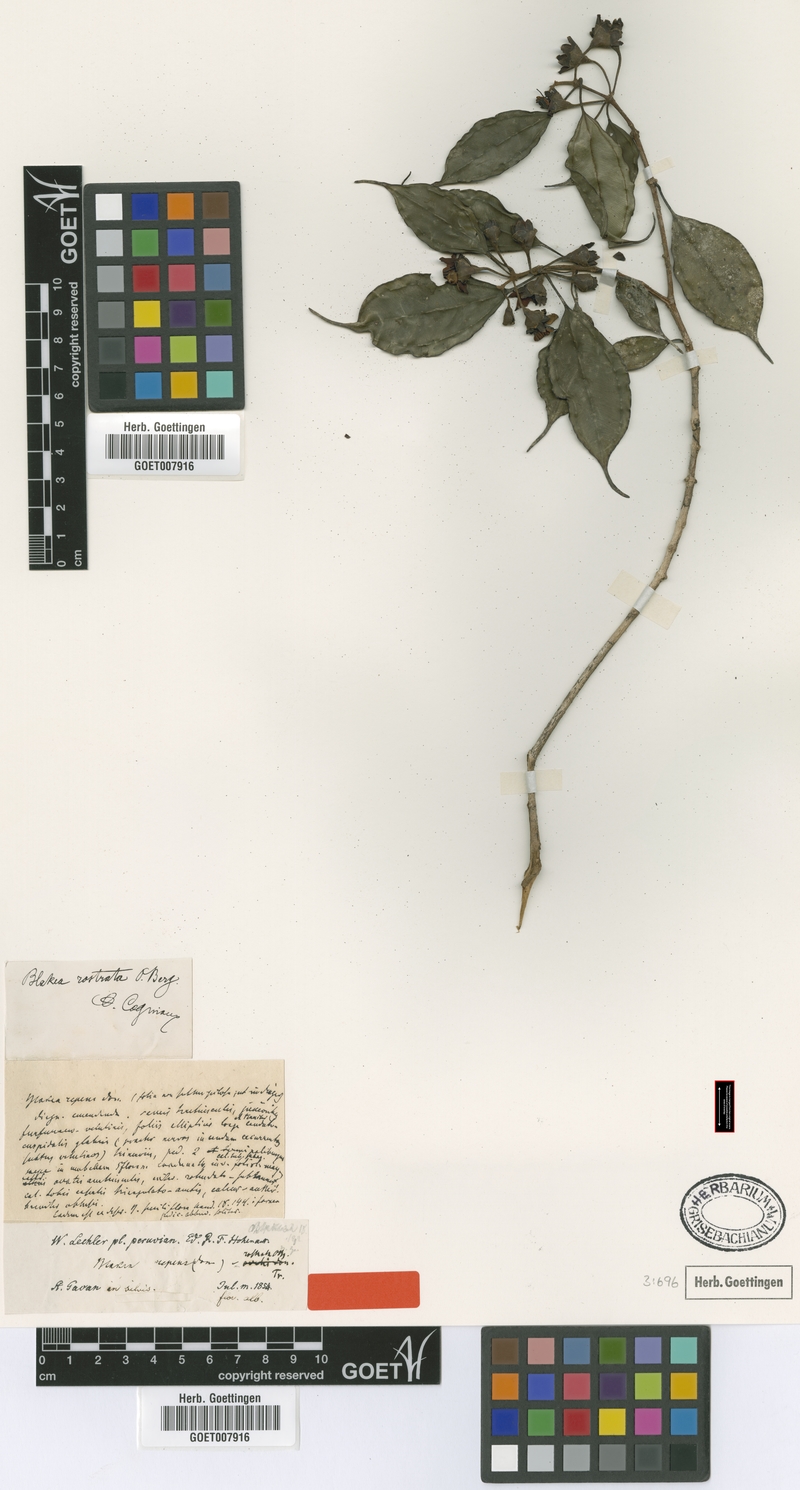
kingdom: Plantae
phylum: Tracheophyta
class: Magnoliopsida
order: Myrtales
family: Melastomataceae
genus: Blakea
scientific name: Blakea rostrata
